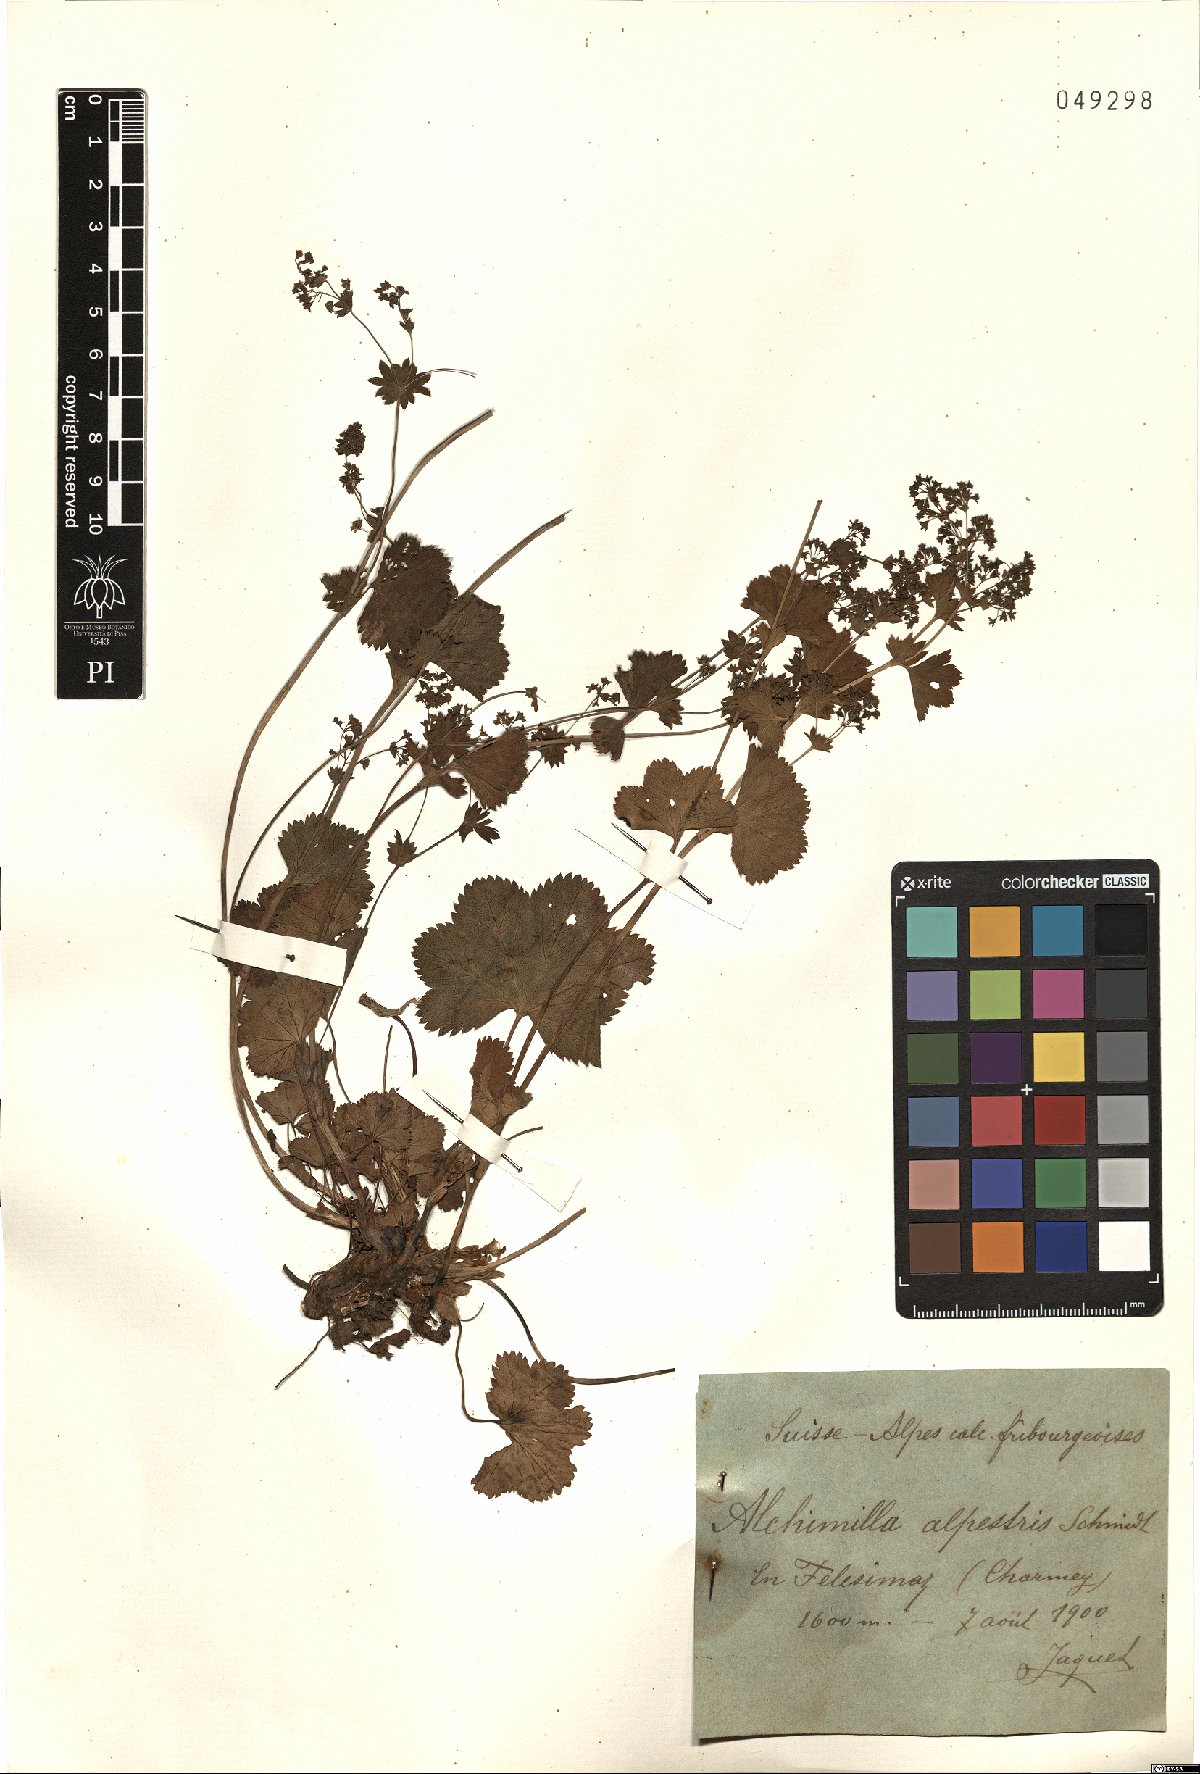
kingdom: Plantae
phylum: Tracheophyta
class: Magnoliopsida
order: Rosales
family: Rosaceae
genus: Alchemilla
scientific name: Alchemilla glabra
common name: Smooth lady's-mantle
